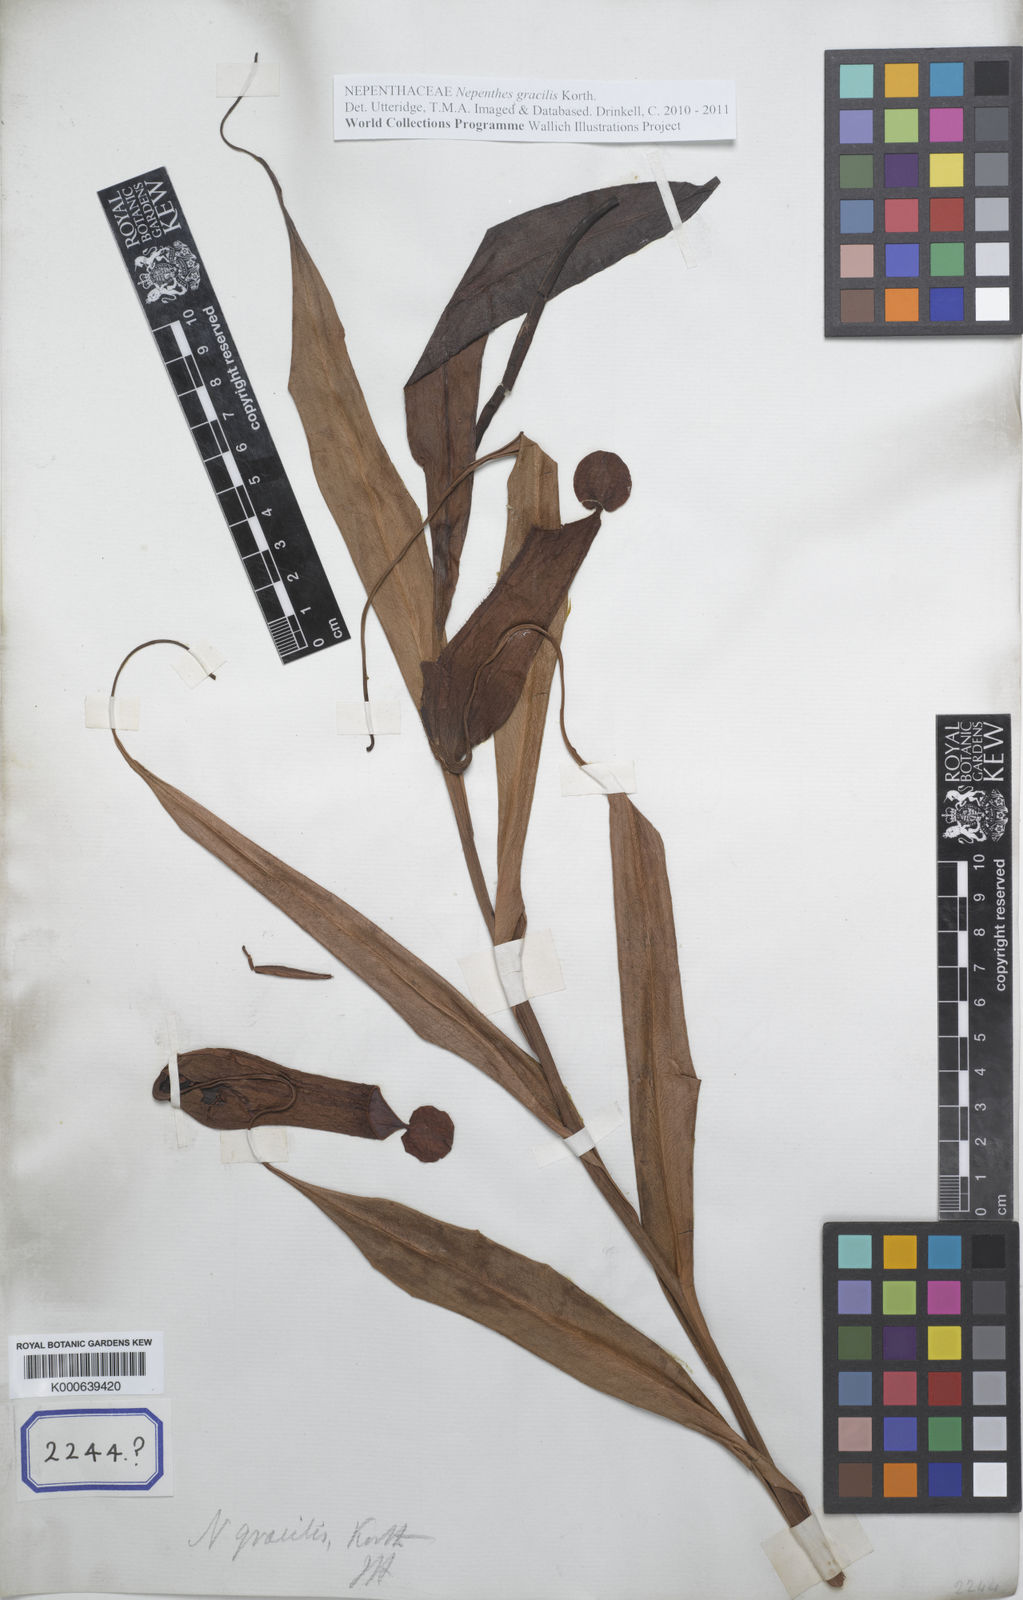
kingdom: Plantae
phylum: Tracheophyta
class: Magnoliopsida
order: Caryophyllales
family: Nepenthaceae
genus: Nepenthes
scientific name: Nepenthes gracilis
